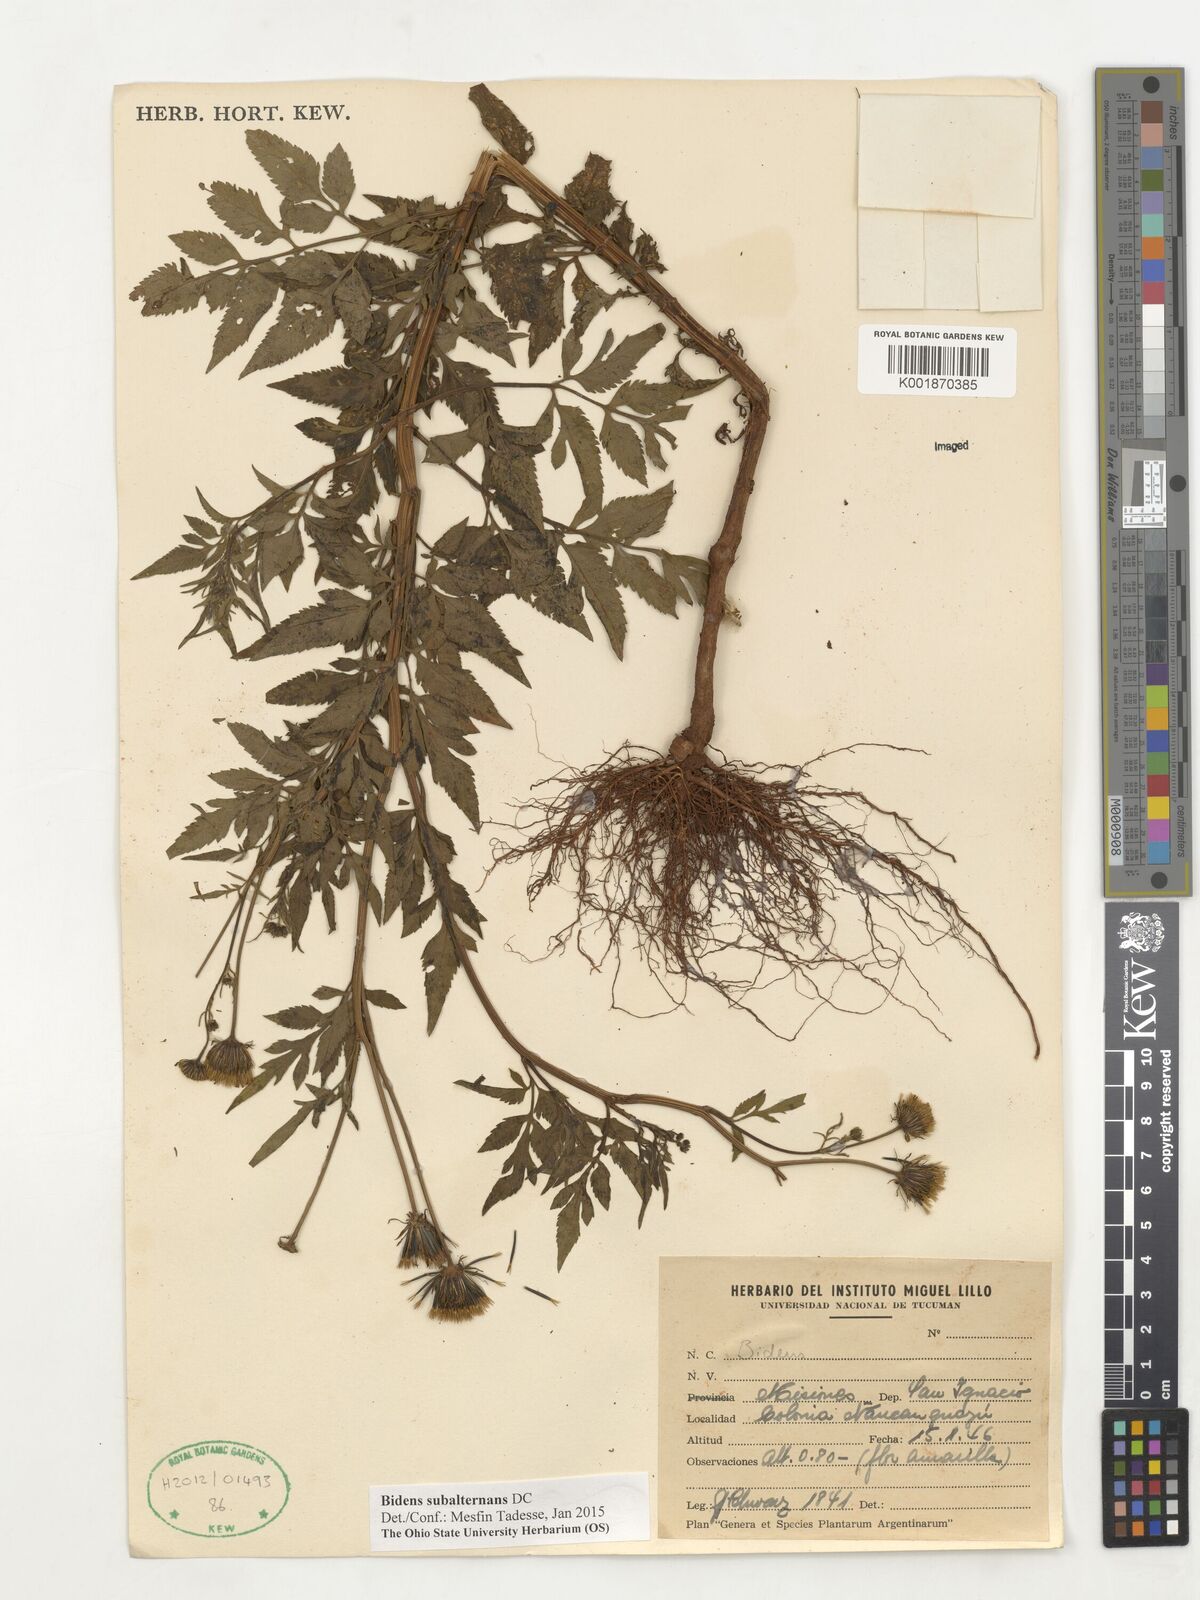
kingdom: Plantae
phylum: Tracheophyta
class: Magnoliopsida
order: Asterales
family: Asteraceae
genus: Bidens
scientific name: Bidens subalternans
